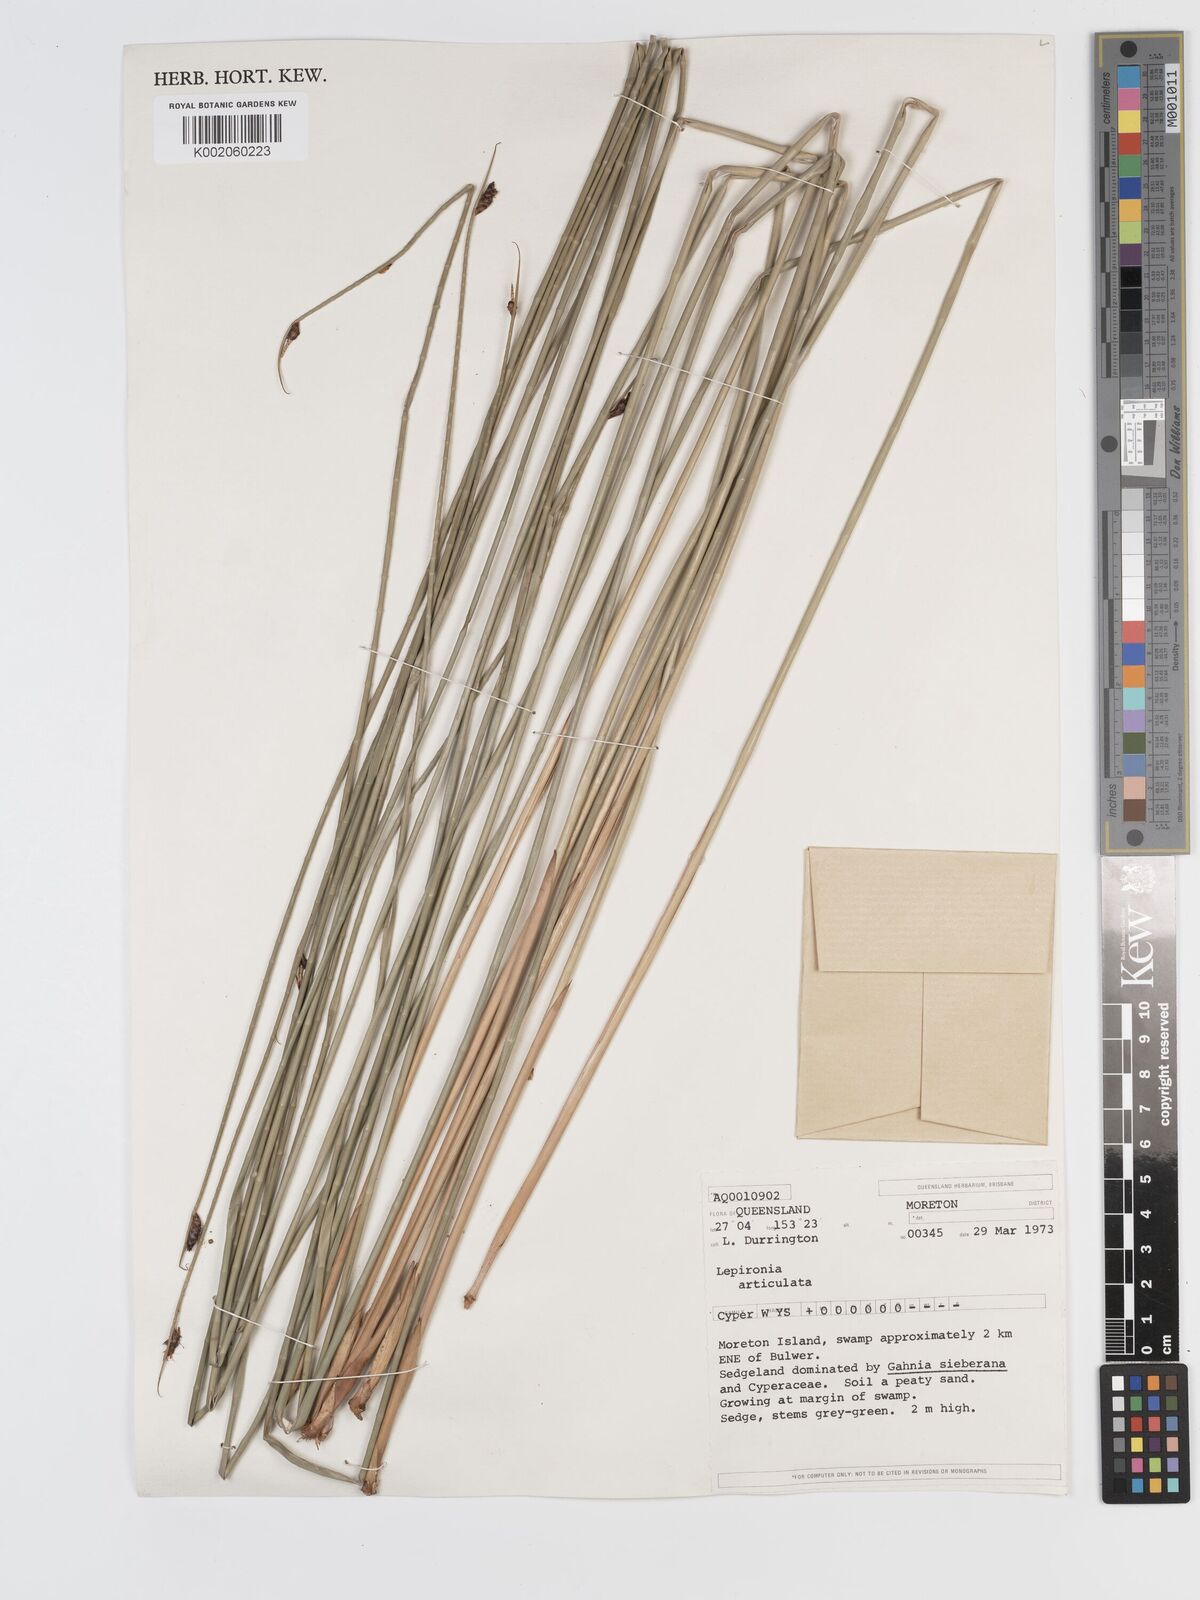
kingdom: Plantae
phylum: Tracheophyta
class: Liliopsida
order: Poales
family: Cyperaceae
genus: Lepironia
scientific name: Lepironia articulata
